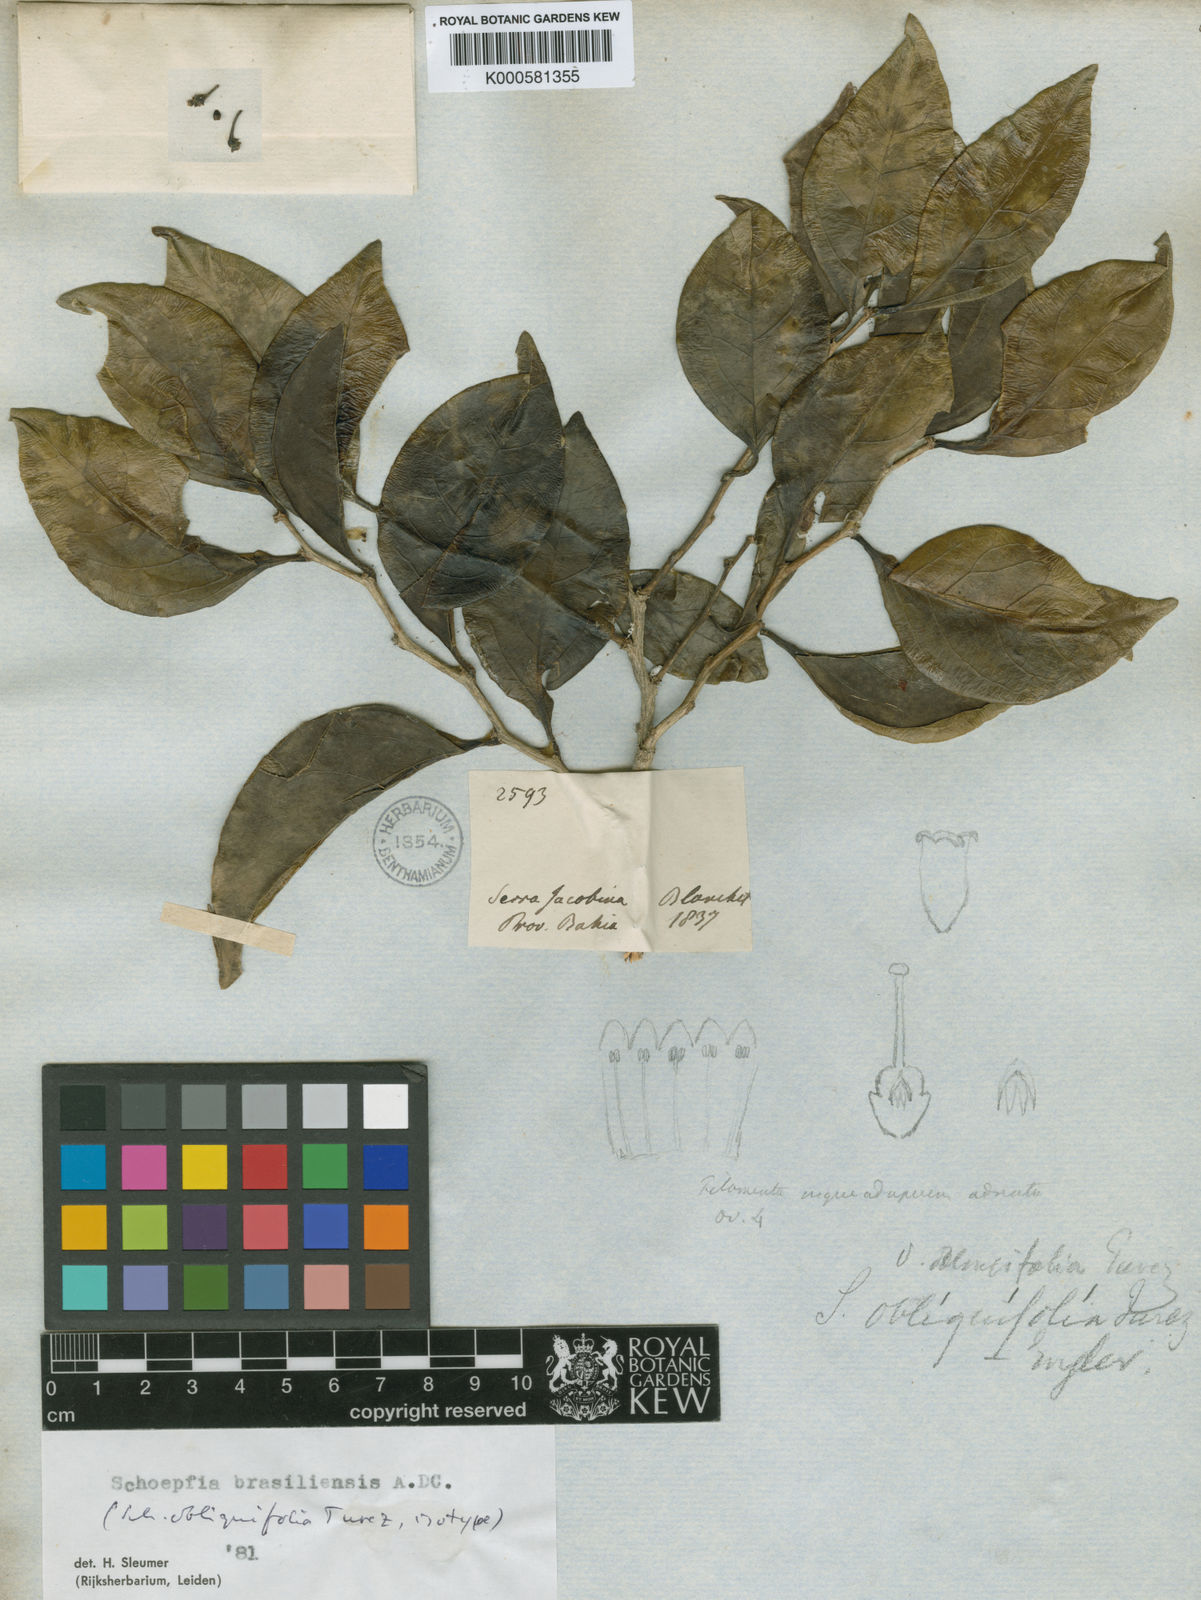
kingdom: Plantae
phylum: Tracheophyta
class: Magnoliopsida
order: Santalales
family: Schoepfiaceae
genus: Schoepfia
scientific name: Schoepfia brasiliensis
